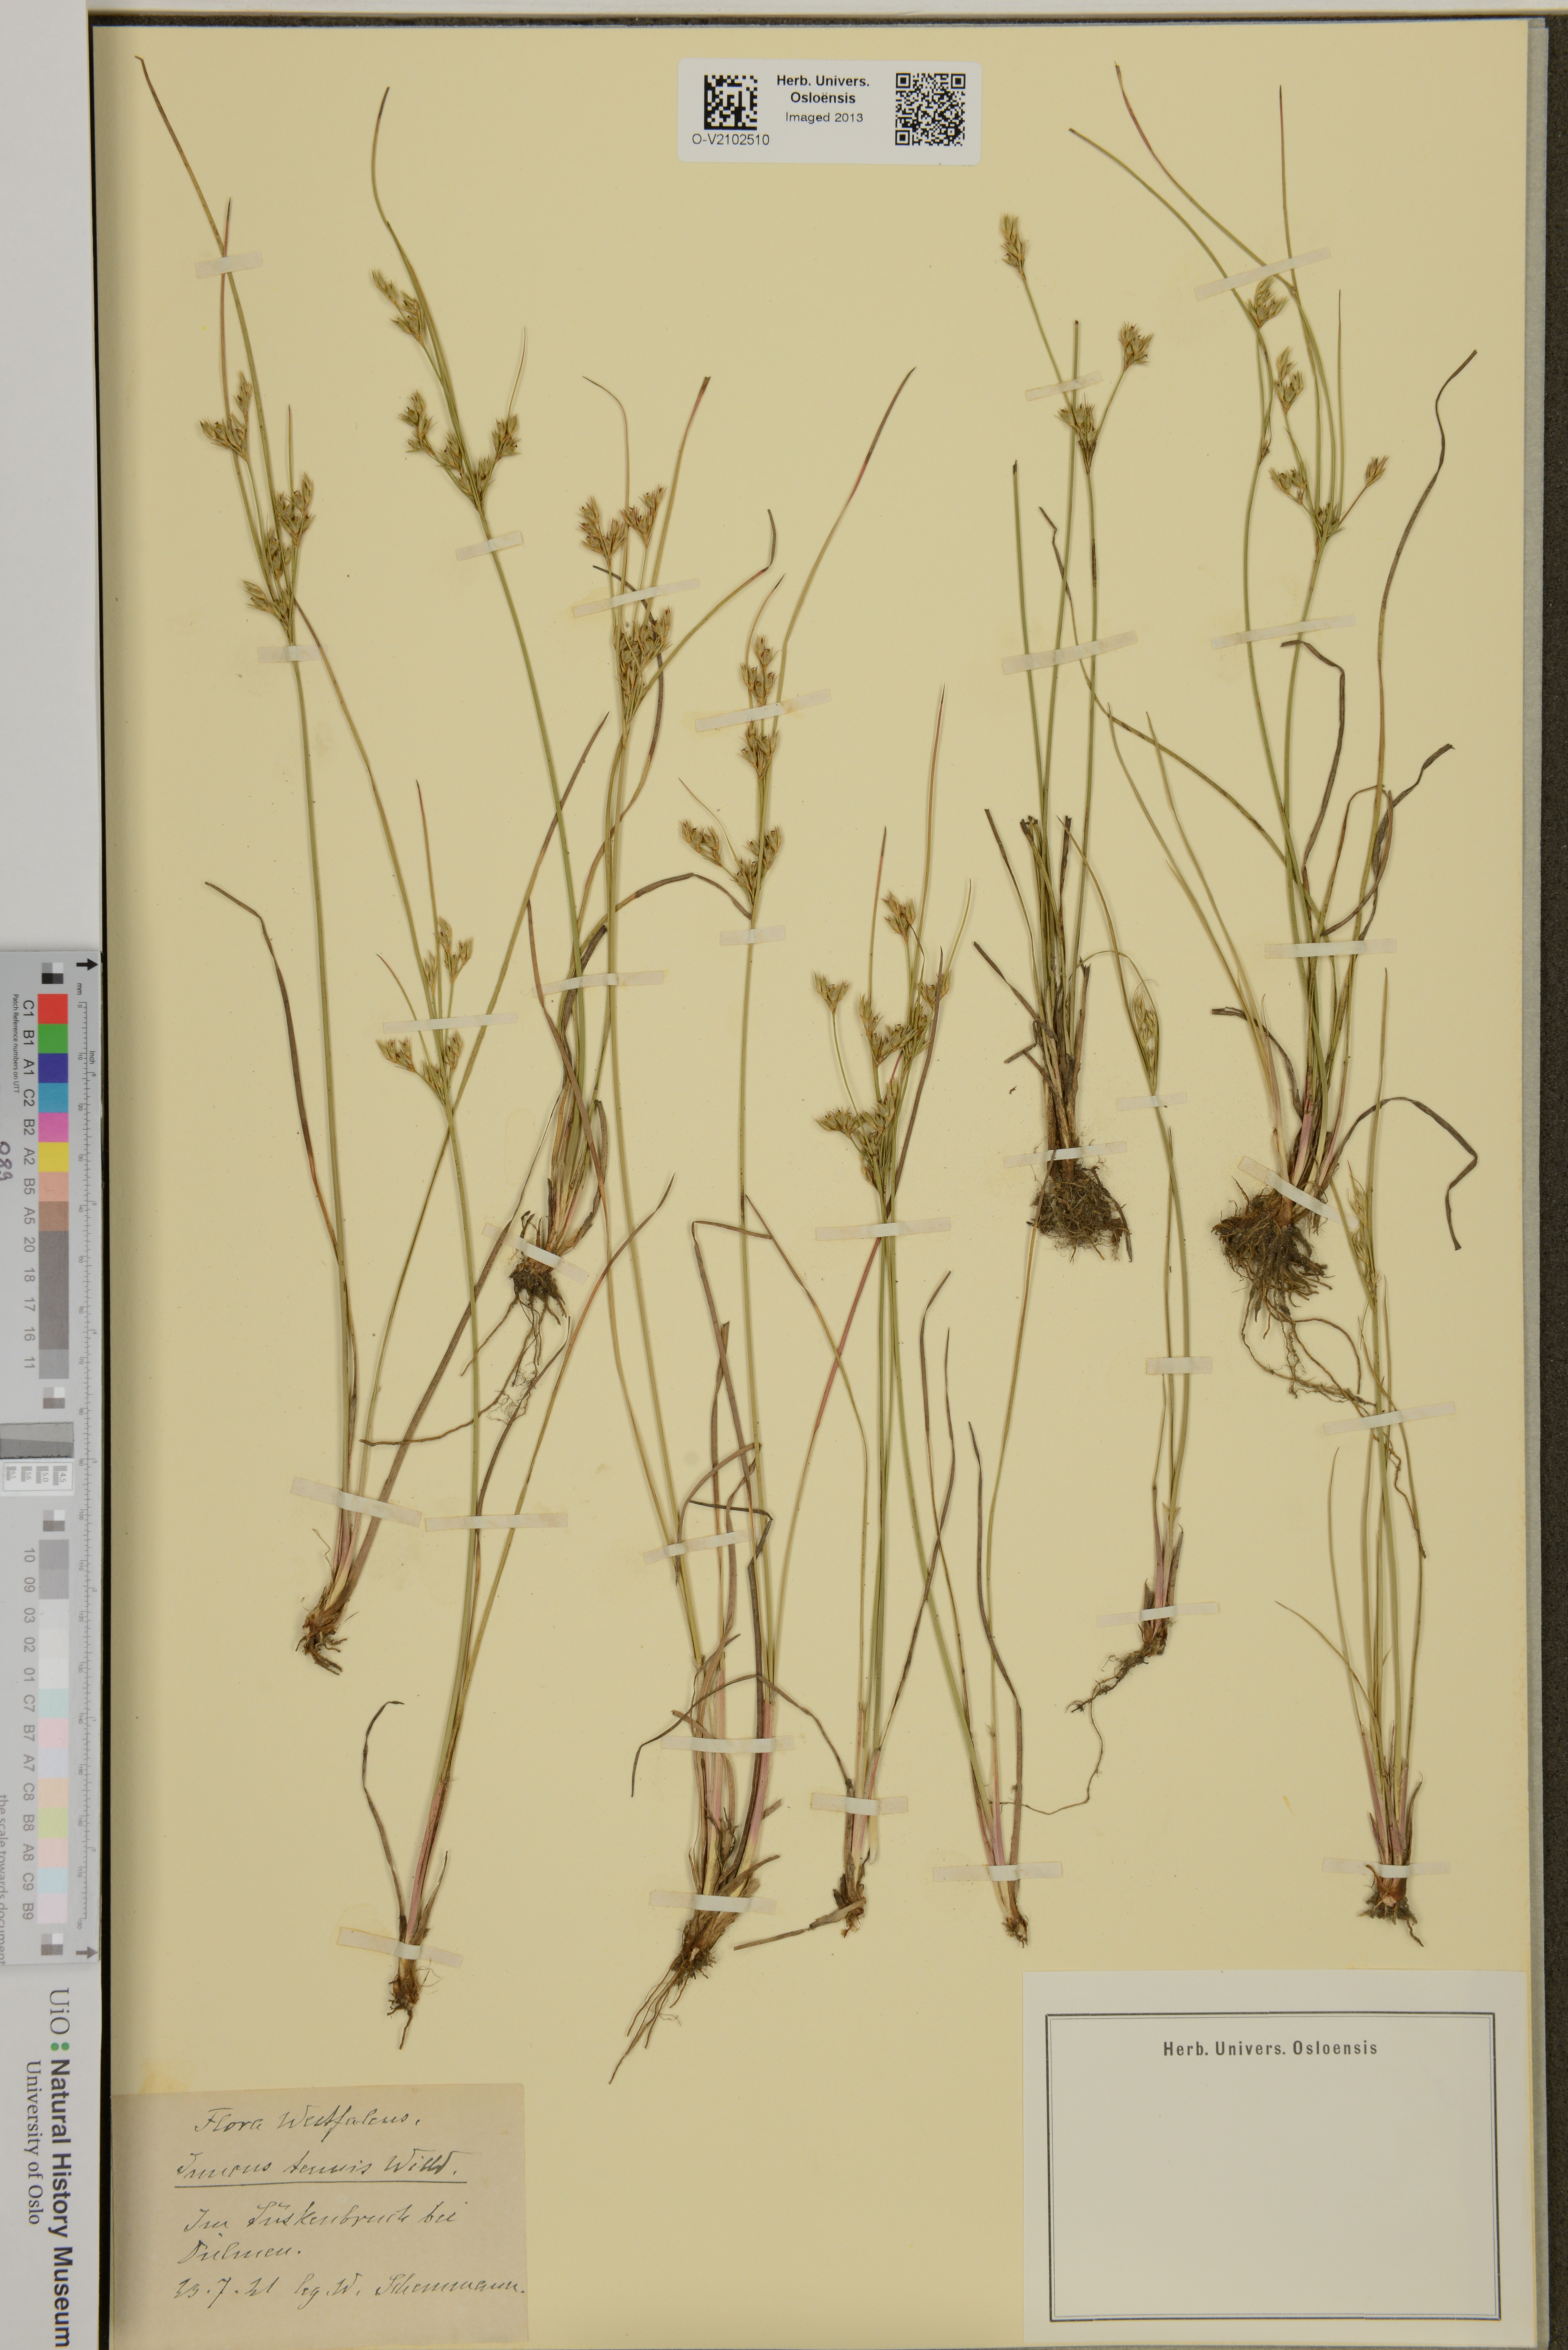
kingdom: Plantae
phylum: Tracheophyta
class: Liliopsida
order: Poales
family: Juncaceae
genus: Juncus
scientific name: Juncus tenuis
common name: Slender rush
